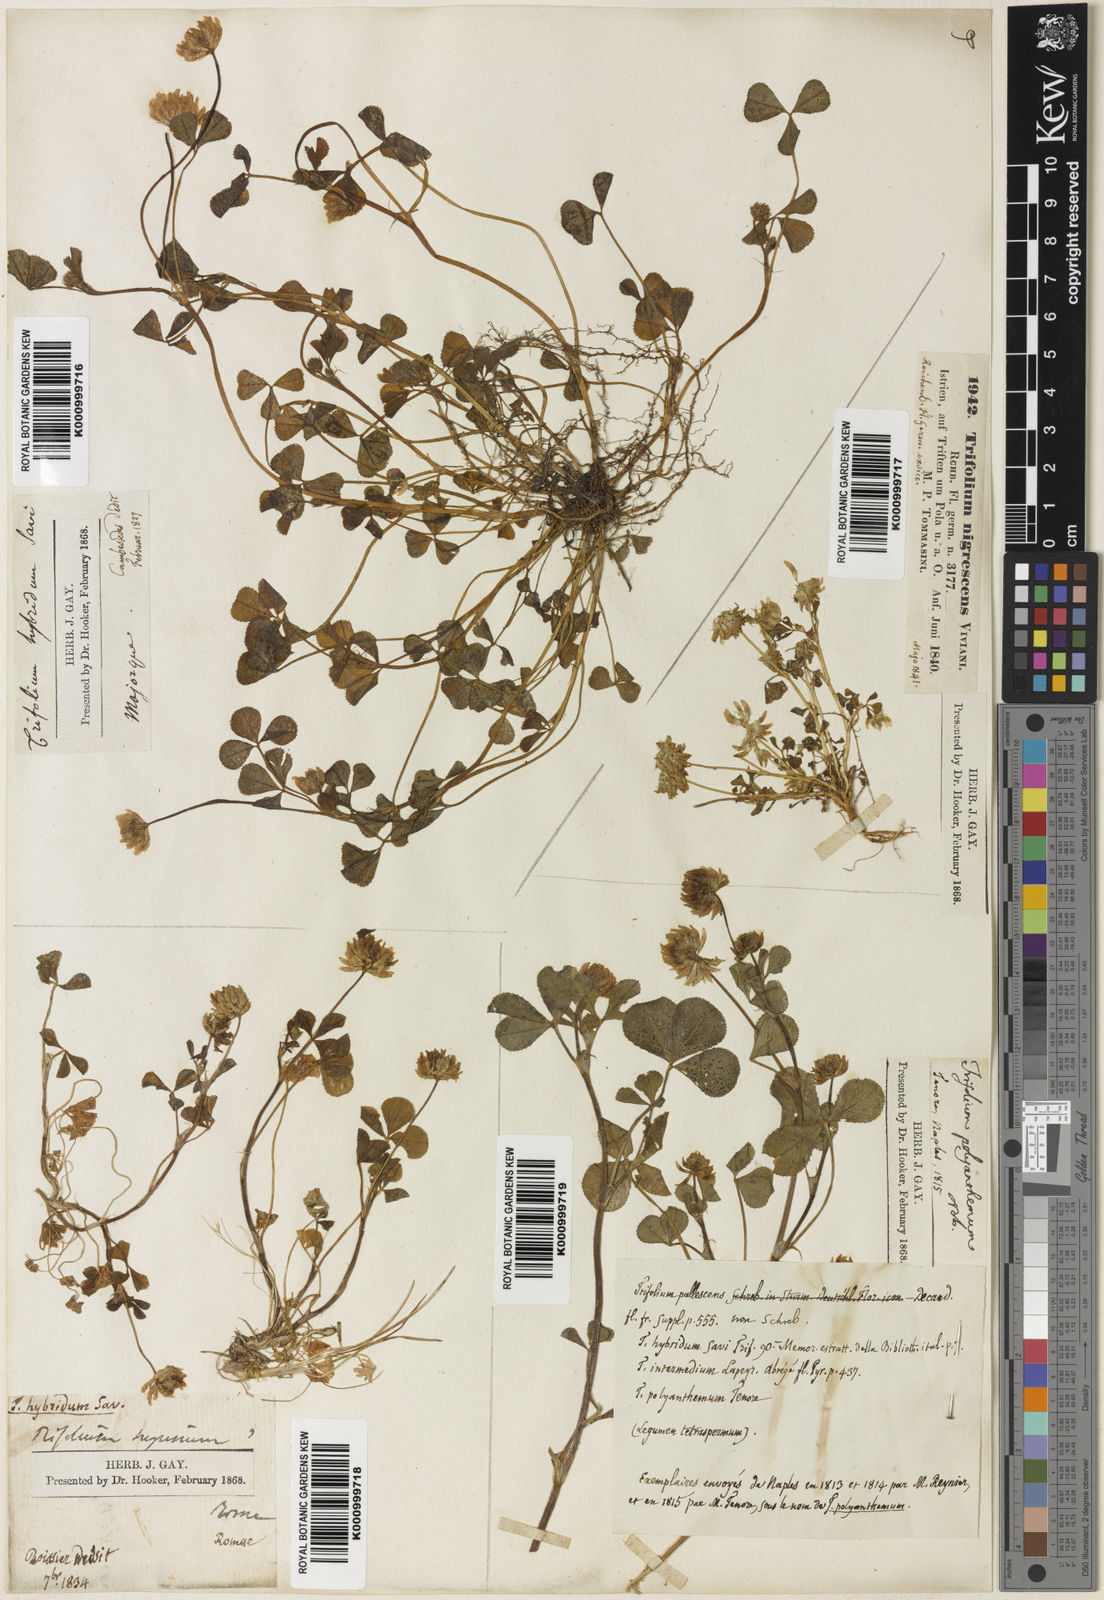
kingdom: Plantae
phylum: Tracheophyta
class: Magnoliopsida
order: Fabales
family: Fabaceae
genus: Trifolium
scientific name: Trifolium
